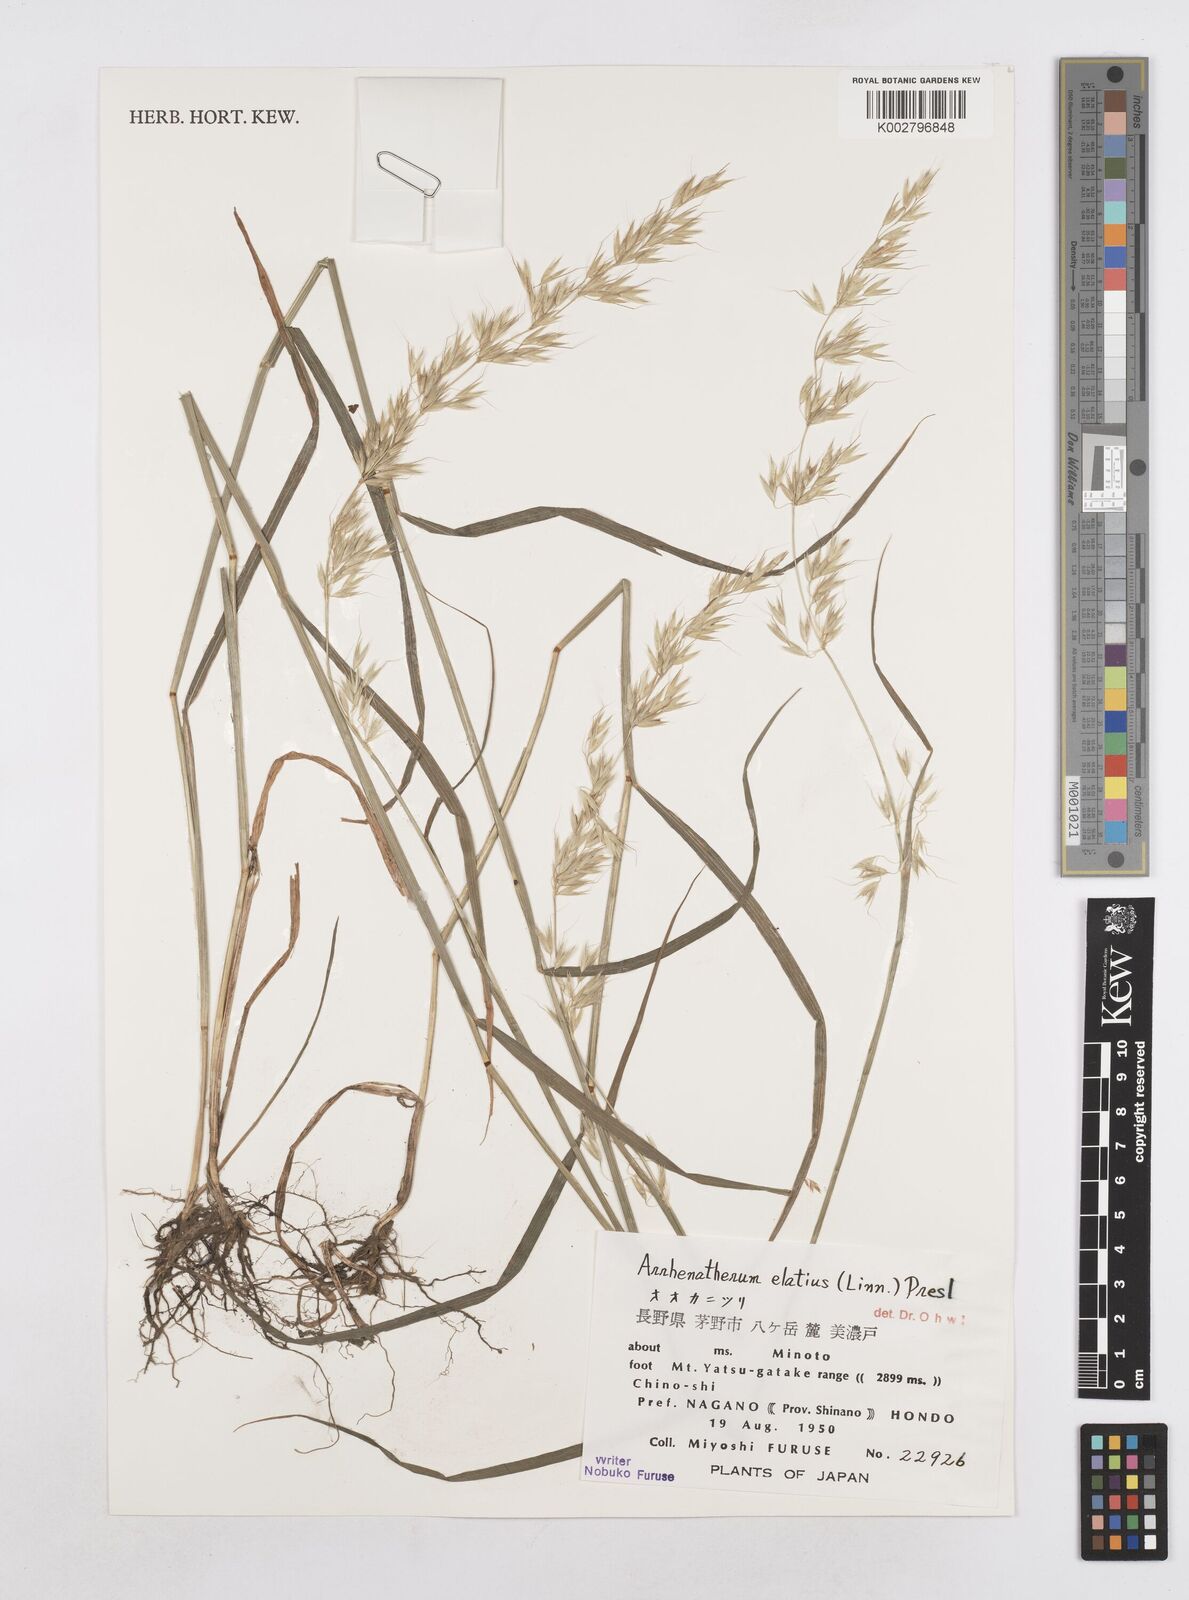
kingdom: Plantae
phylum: Tracheophyta
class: Liliopsida
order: Poales
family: Poaceae
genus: Arrhenatherum
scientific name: Arrhenatherum elatius
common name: Tall oatgrass
